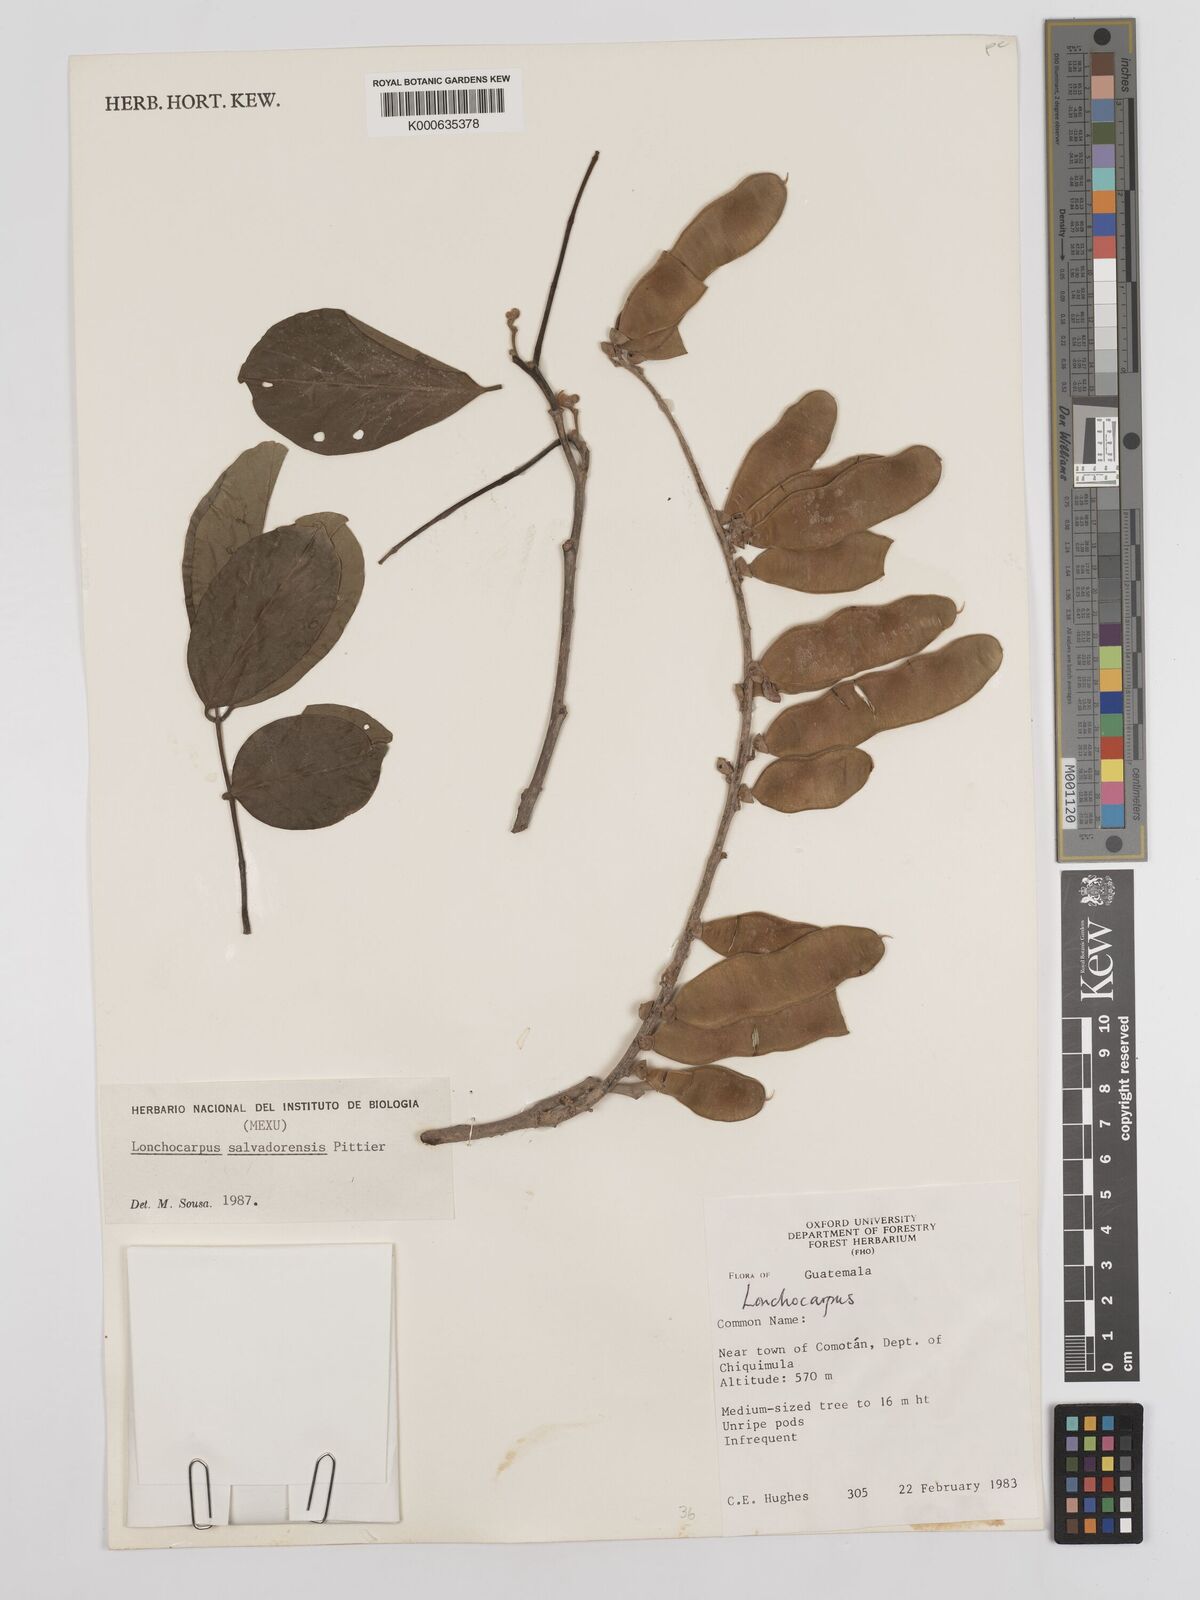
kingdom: Plantae
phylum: Tracheophyta
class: Magnoliopsida
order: Fabales
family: Fabaceae
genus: Lonchocarpus
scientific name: Lonchocarpus salvadorensis
